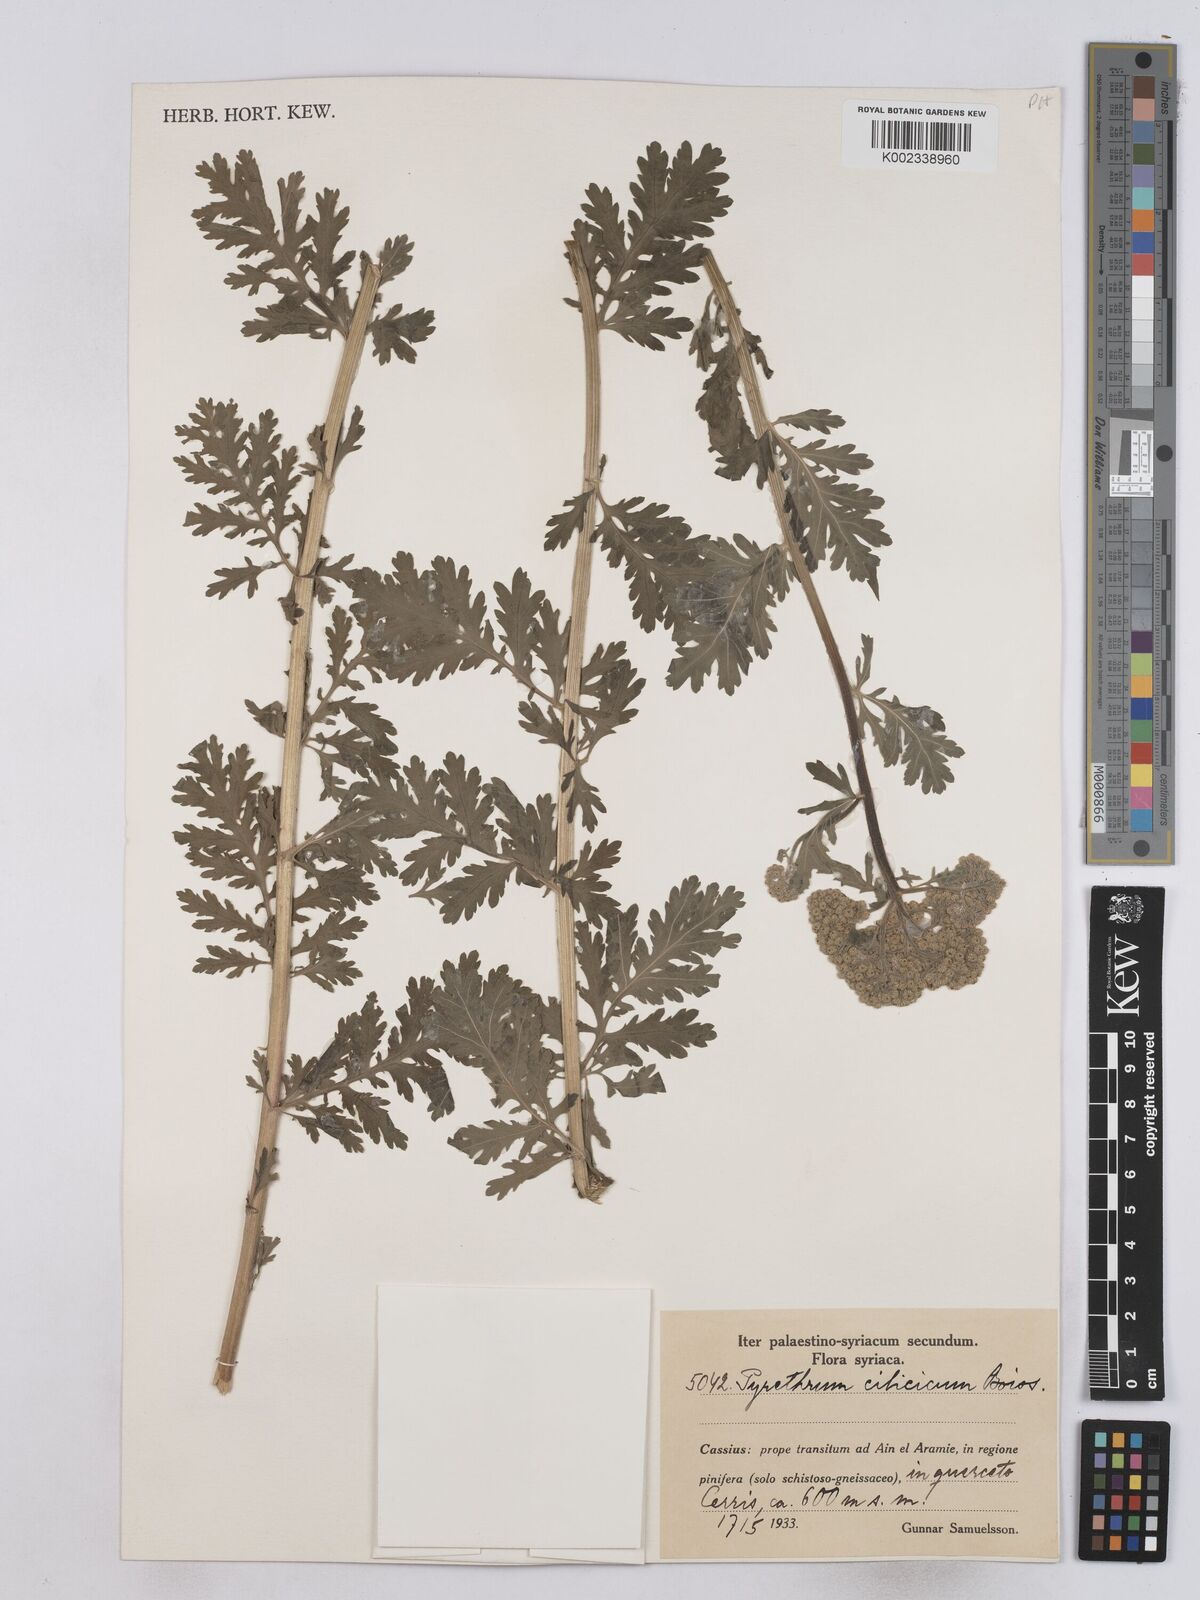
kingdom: Plantae
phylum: Tracheophyta
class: Magnoliopsida
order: Asterales
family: Asteraceae
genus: Tanacetum
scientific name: Tanacetum cilicicum
